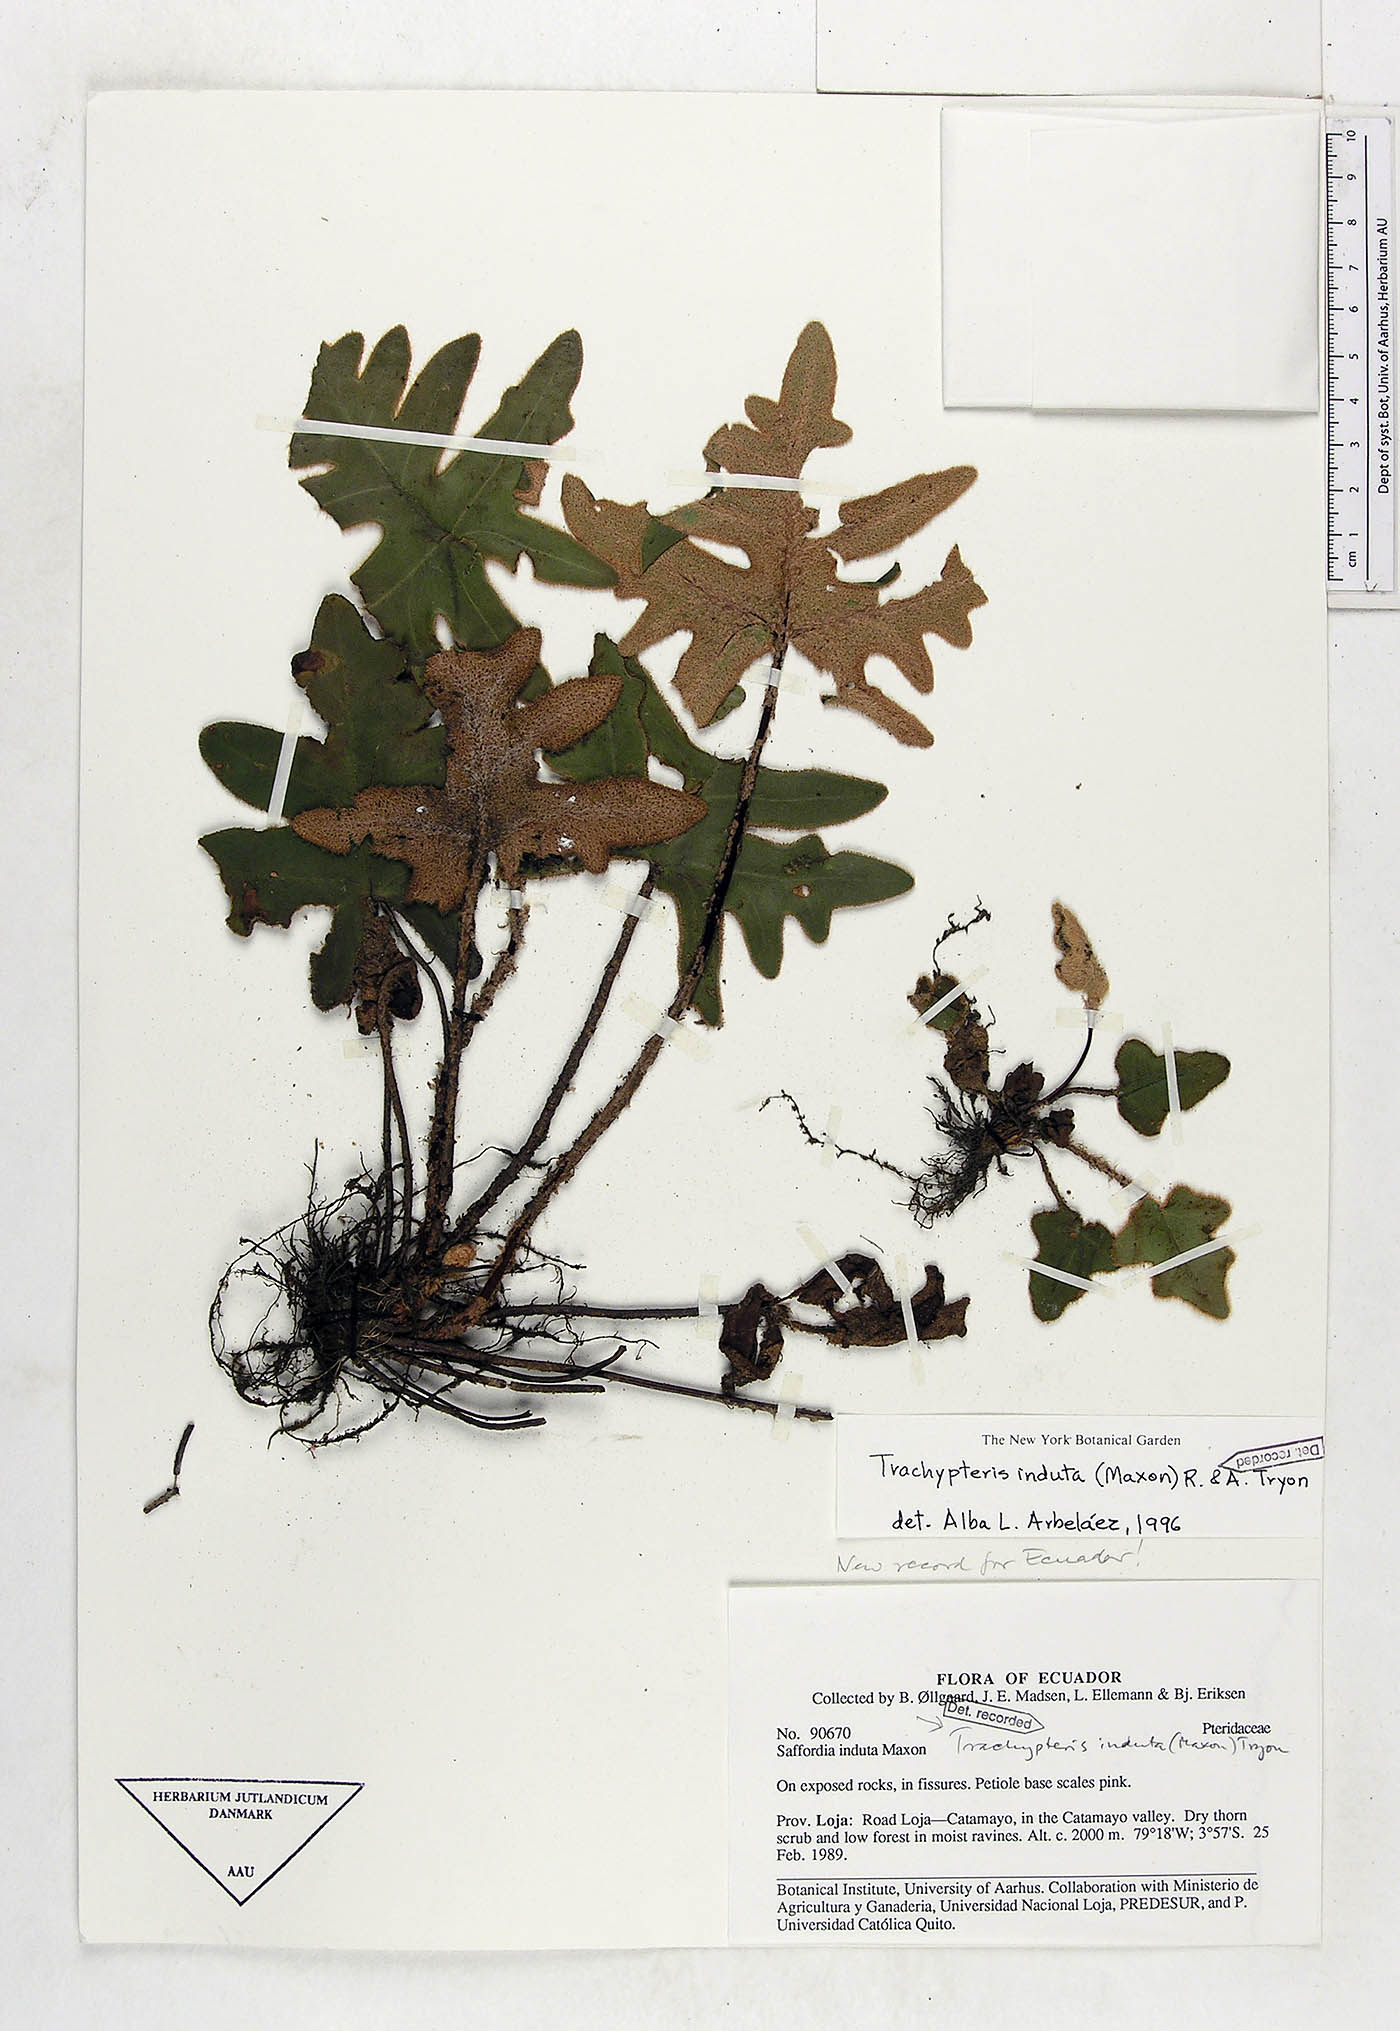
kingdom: Plantae
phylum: Tracheophyta
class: Polypodiopsida
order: Polypodiales
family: Pteridaceae
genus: Trachypteris
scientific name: Trachypteris induta
